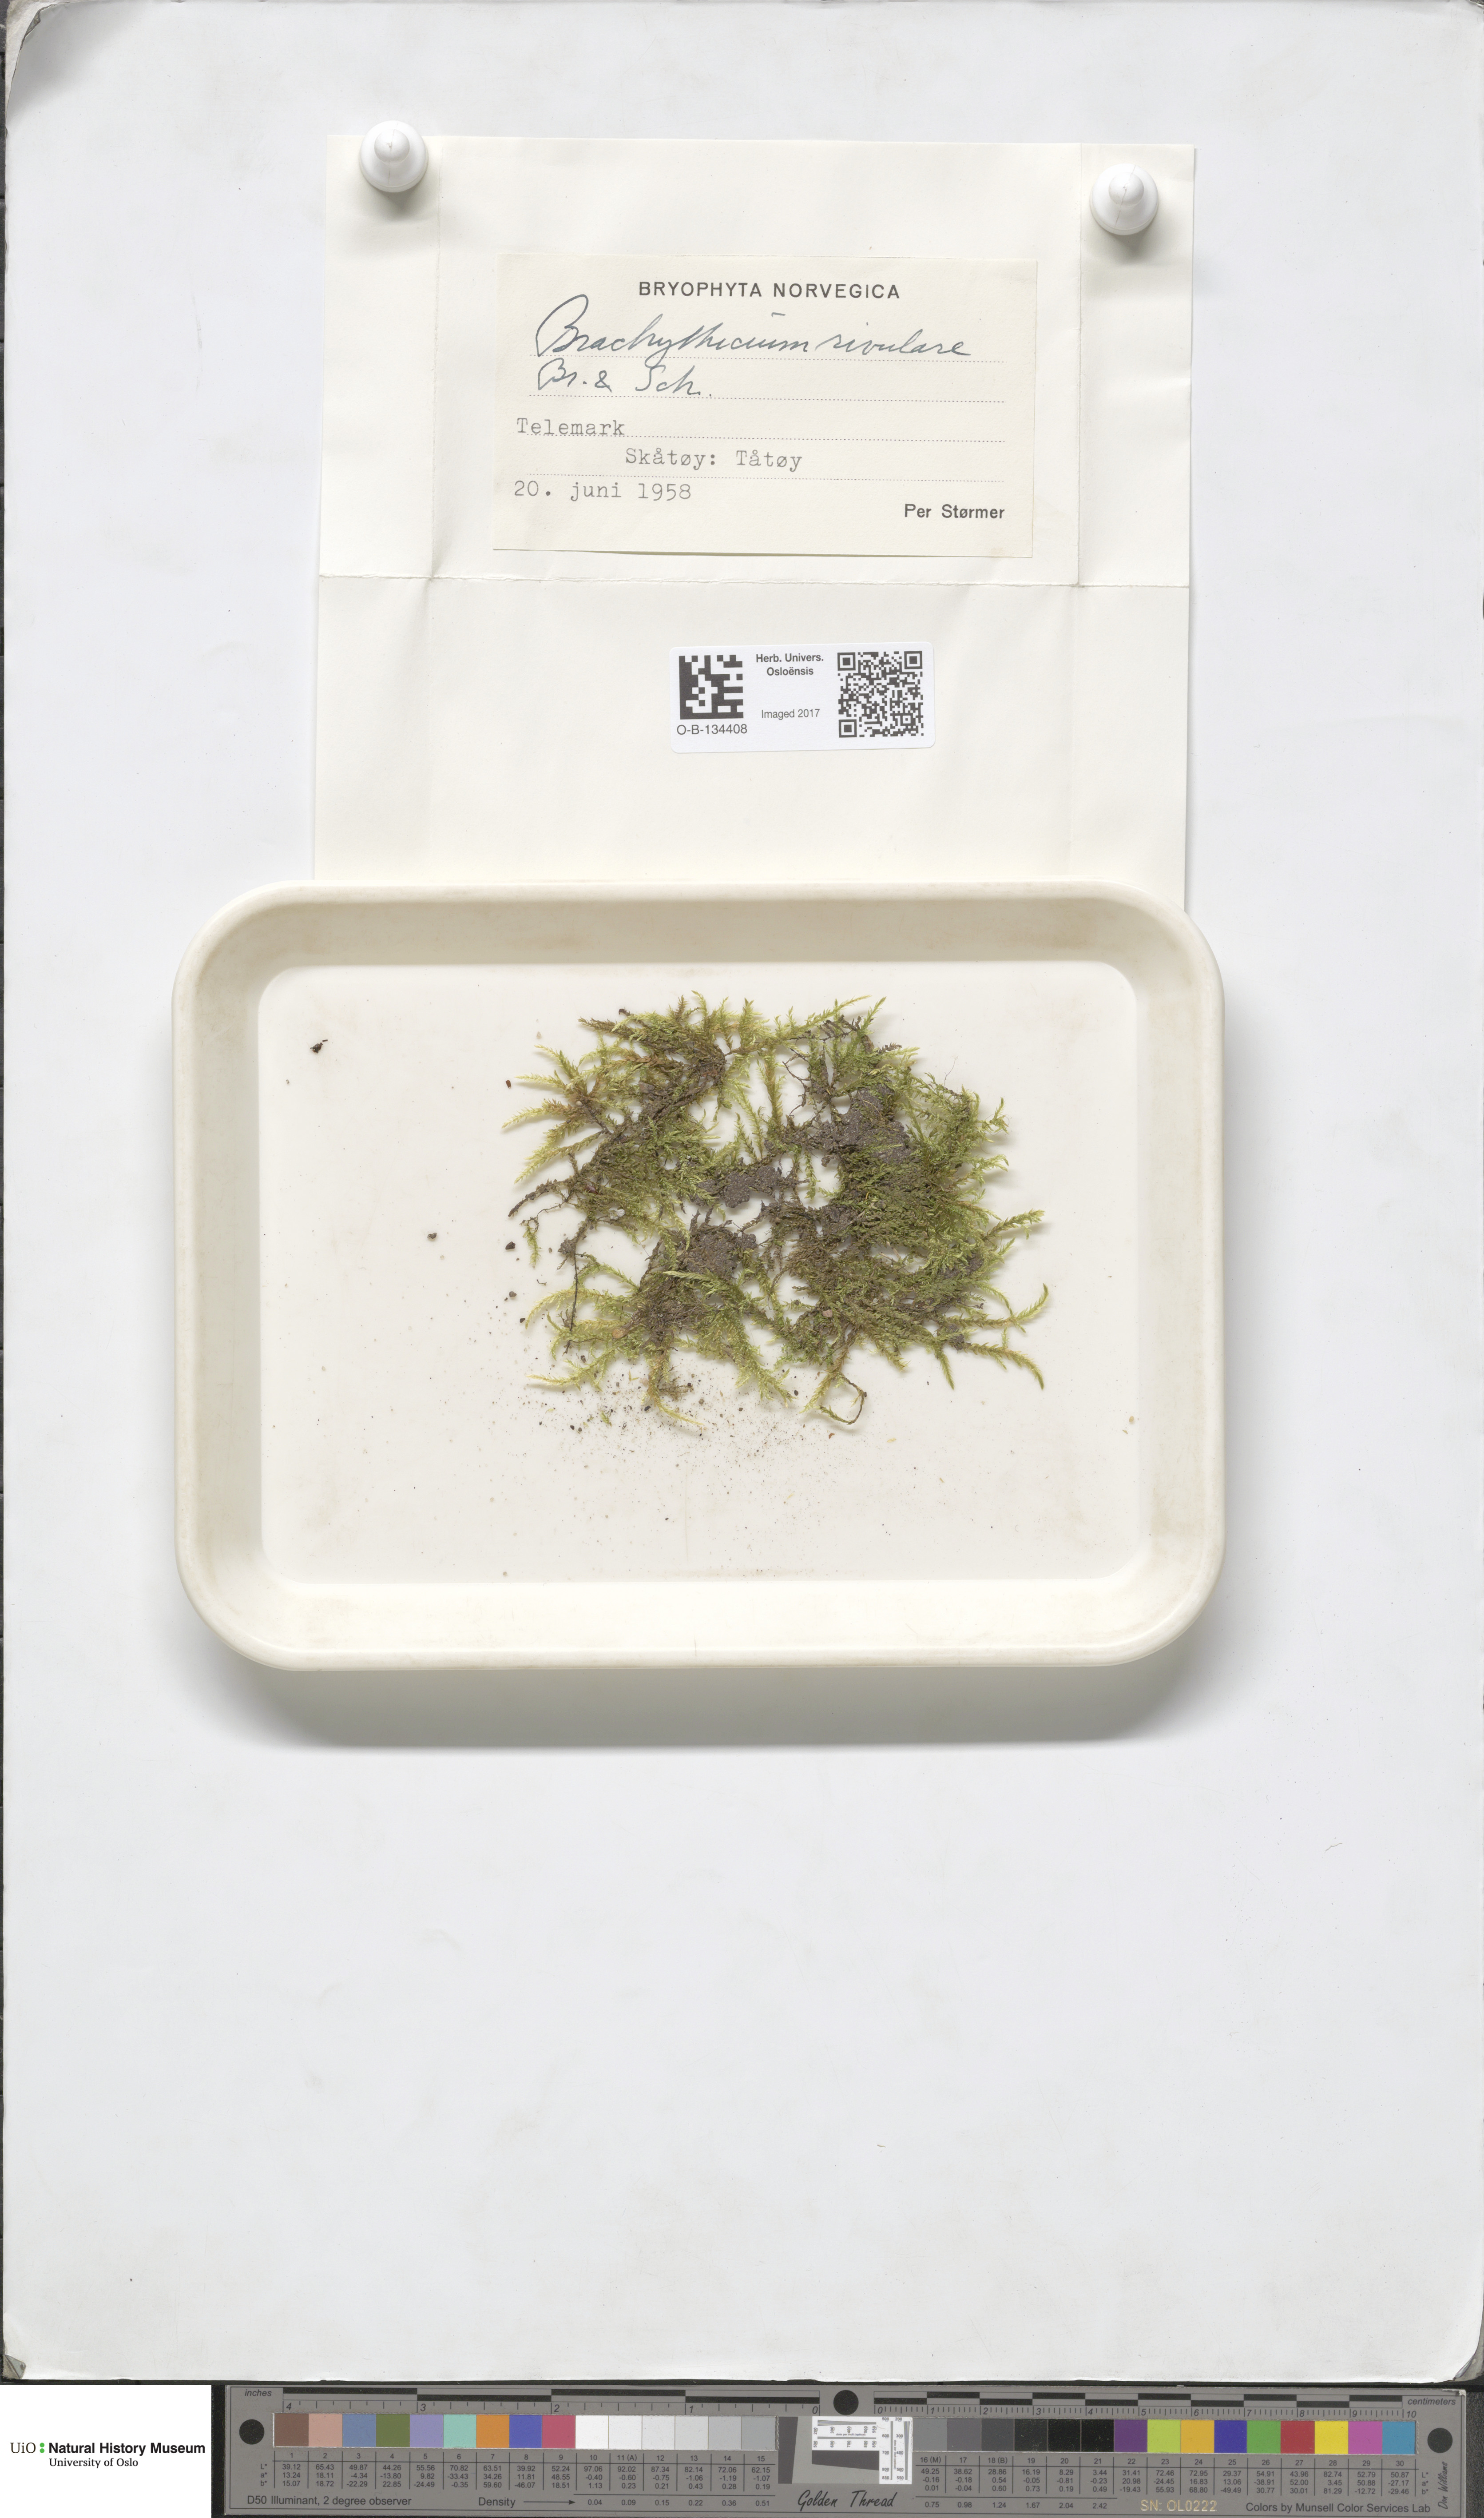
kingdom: Plantae
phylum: Bryophyta
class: Bryopsida
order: Hypnales
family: Brachytheciaceae
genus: Brachythecium
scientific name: Brachythecium rivulare
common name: River ragged moss
